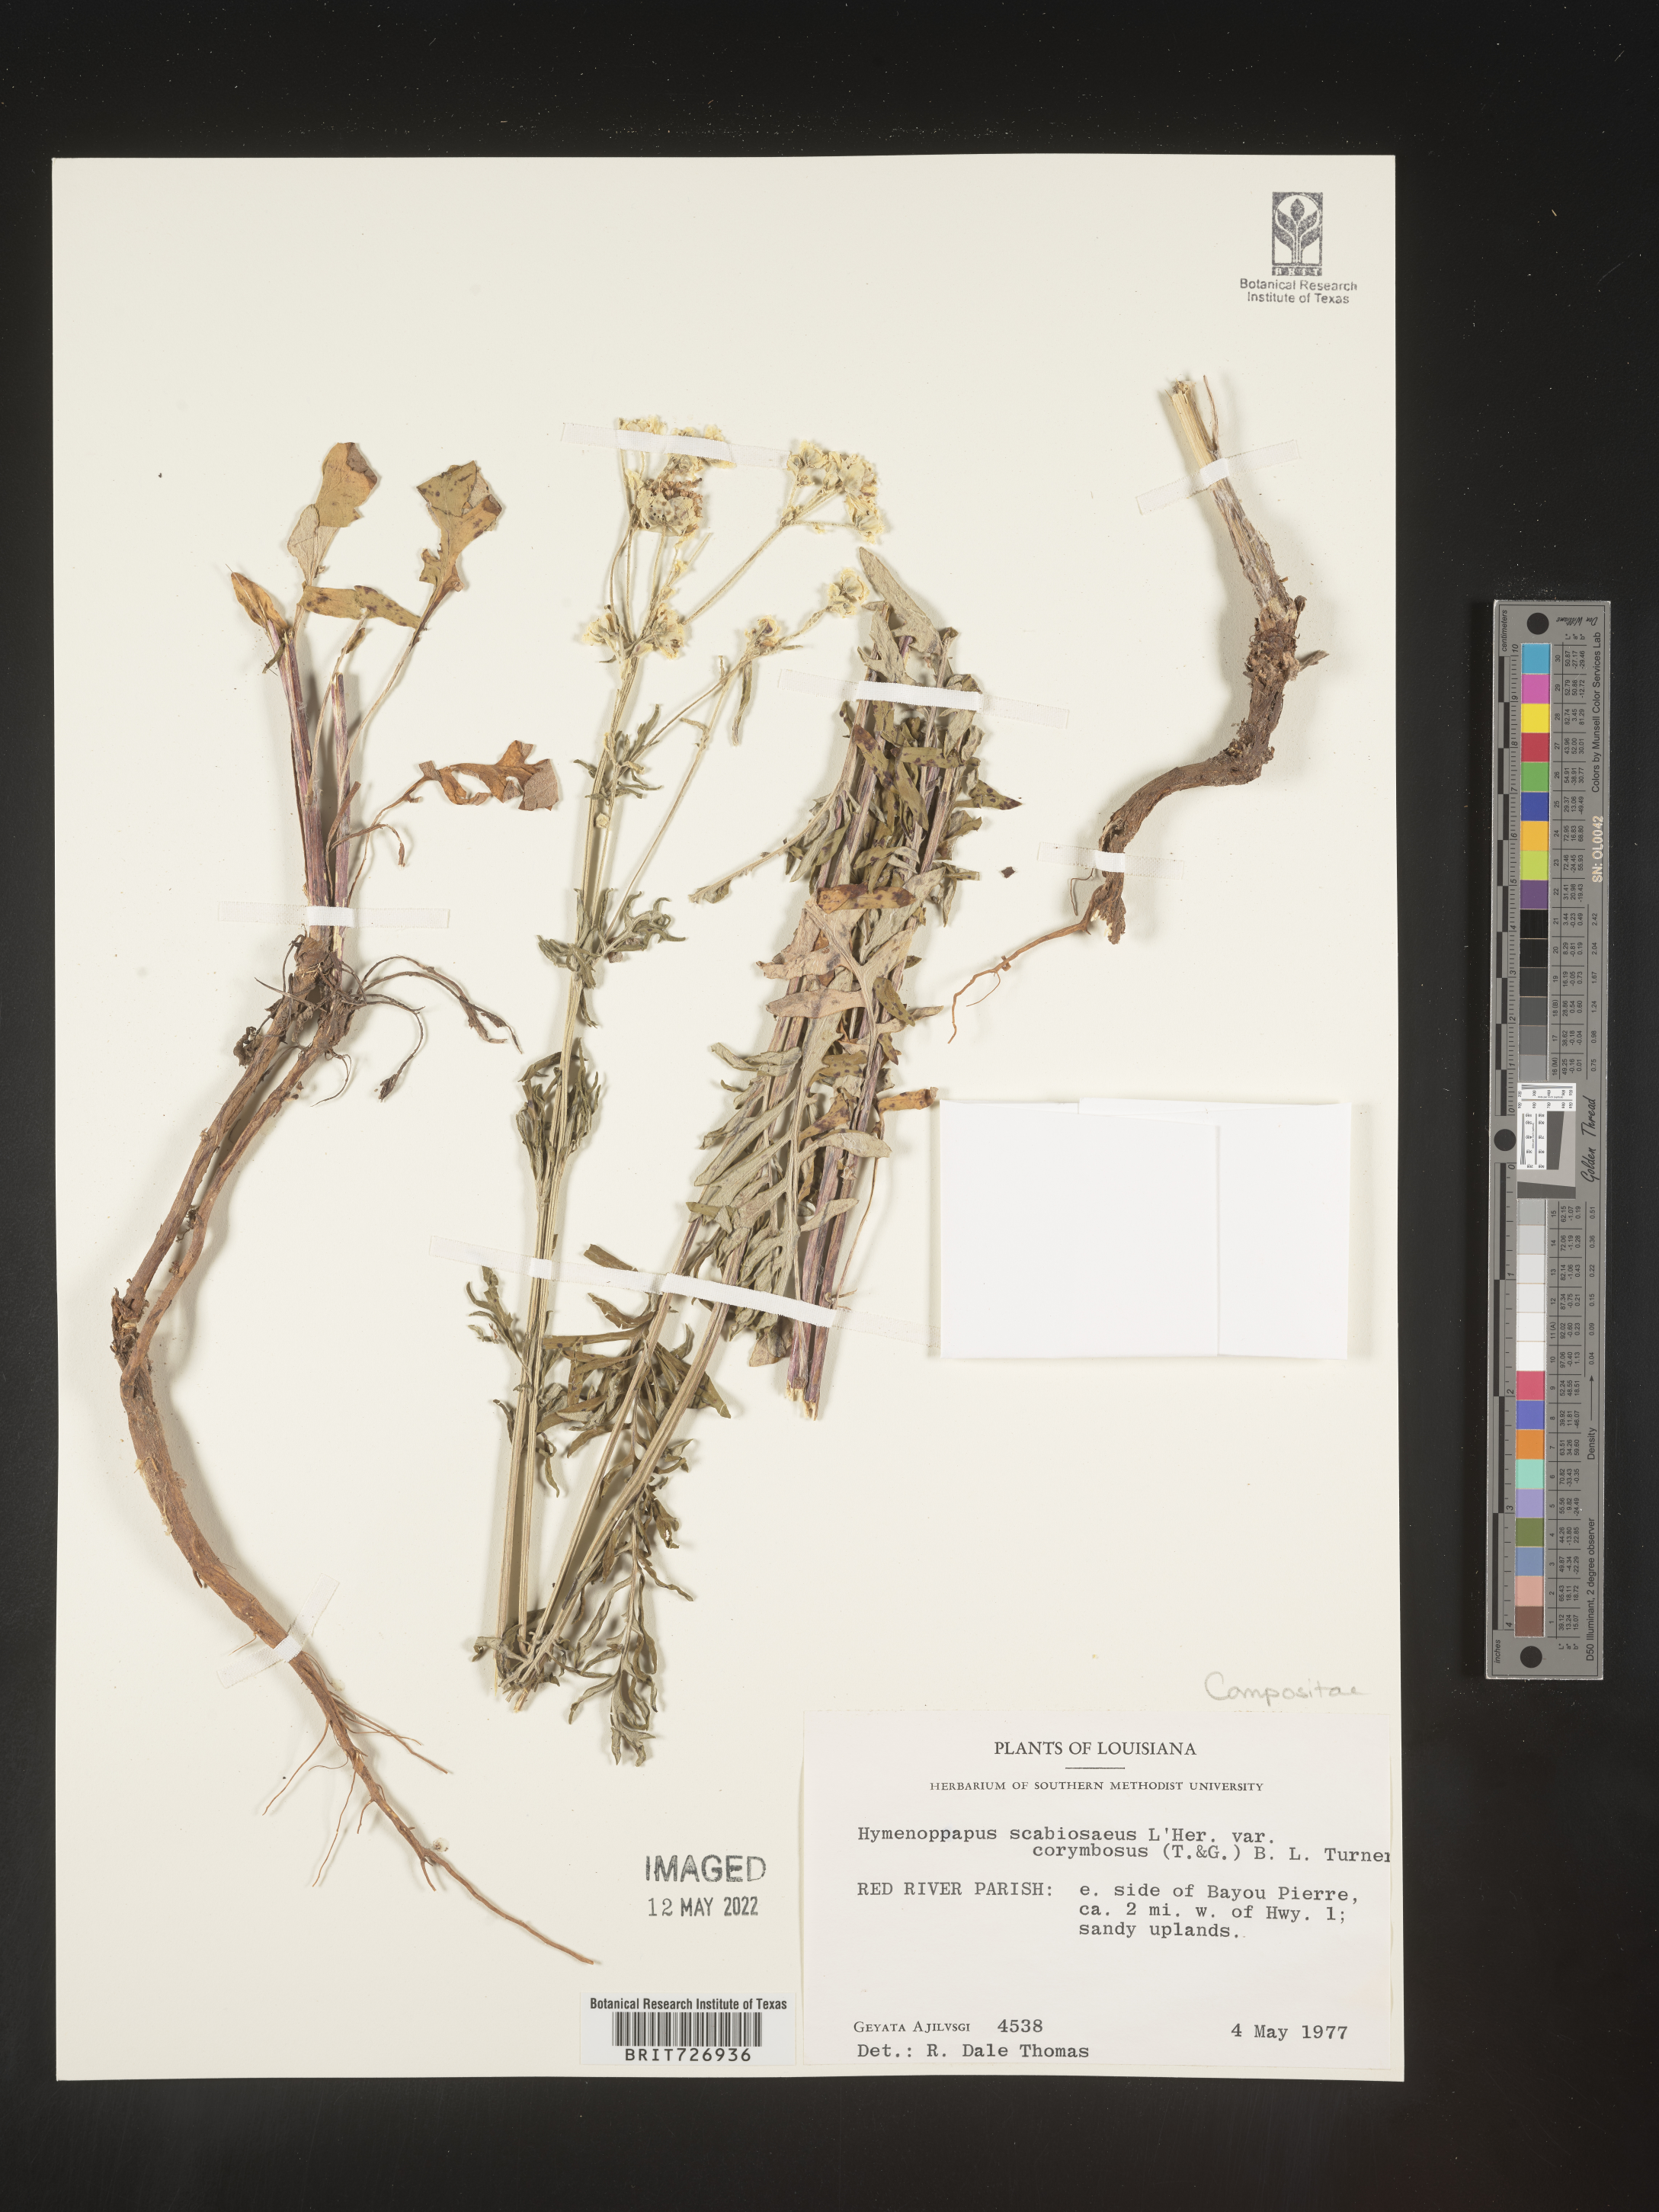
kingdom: Plantae
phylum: Tracheophyta
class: Magnoliopsida
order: Asterales
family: Asteraceae
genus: Hymenopappus
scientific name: Hymenopappus scabiosaeus
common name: Carolina woollywhite
